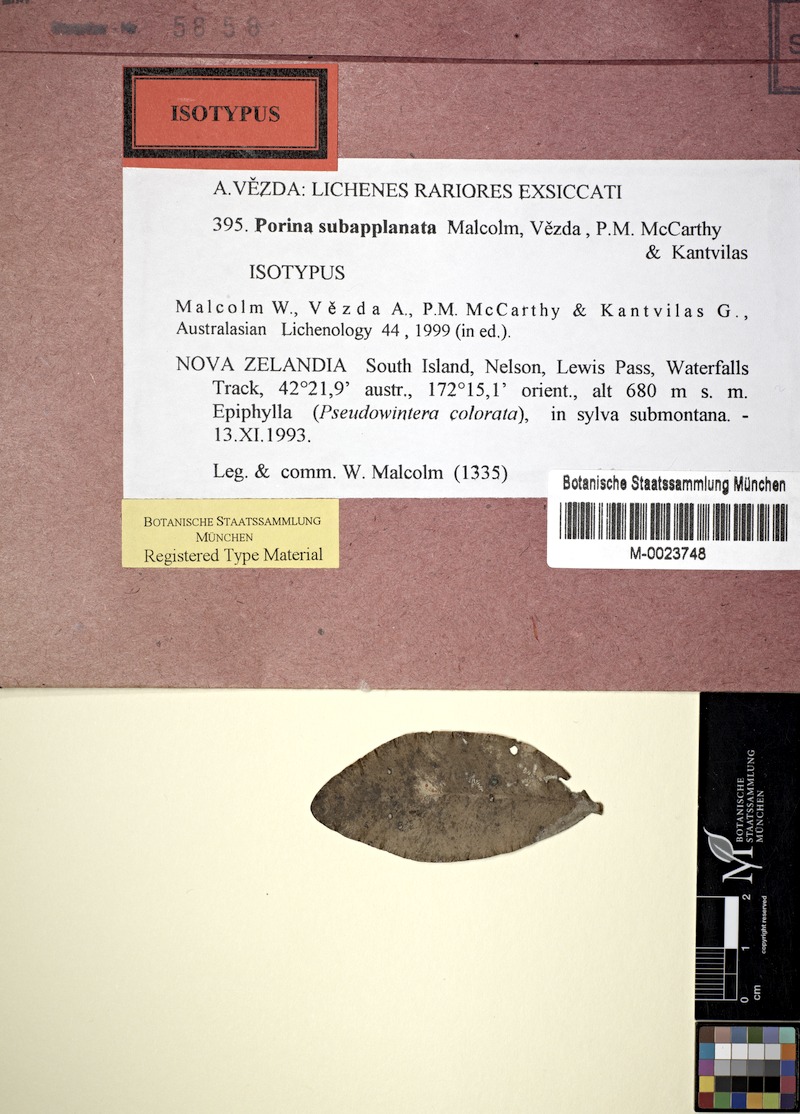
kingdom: Fungi
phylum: Ascomycota
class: Lecanoromycetes
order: Pertusariales
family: Pertusariaceae
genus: Porina
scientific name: Porina subapplanata
